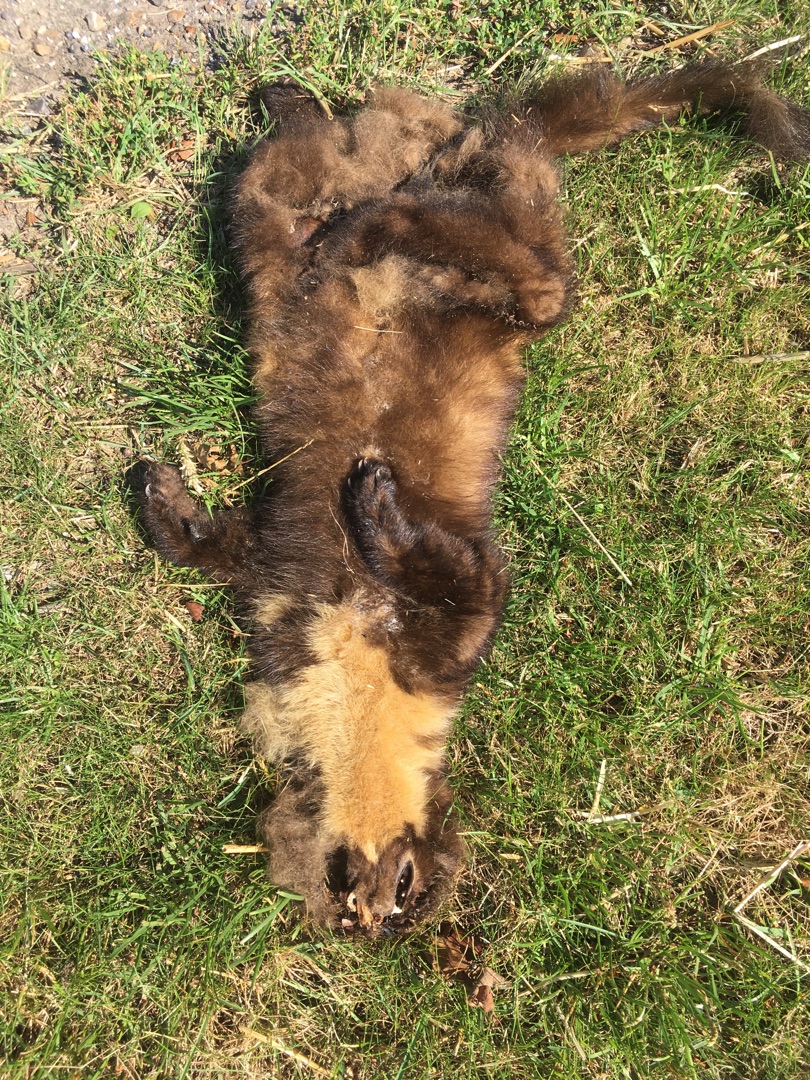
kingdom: Animalia
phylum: Chordata
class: Mammalia
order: Carnivora
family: Mustelidae
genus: Martes
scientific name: Martes martes
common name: Skovmår
